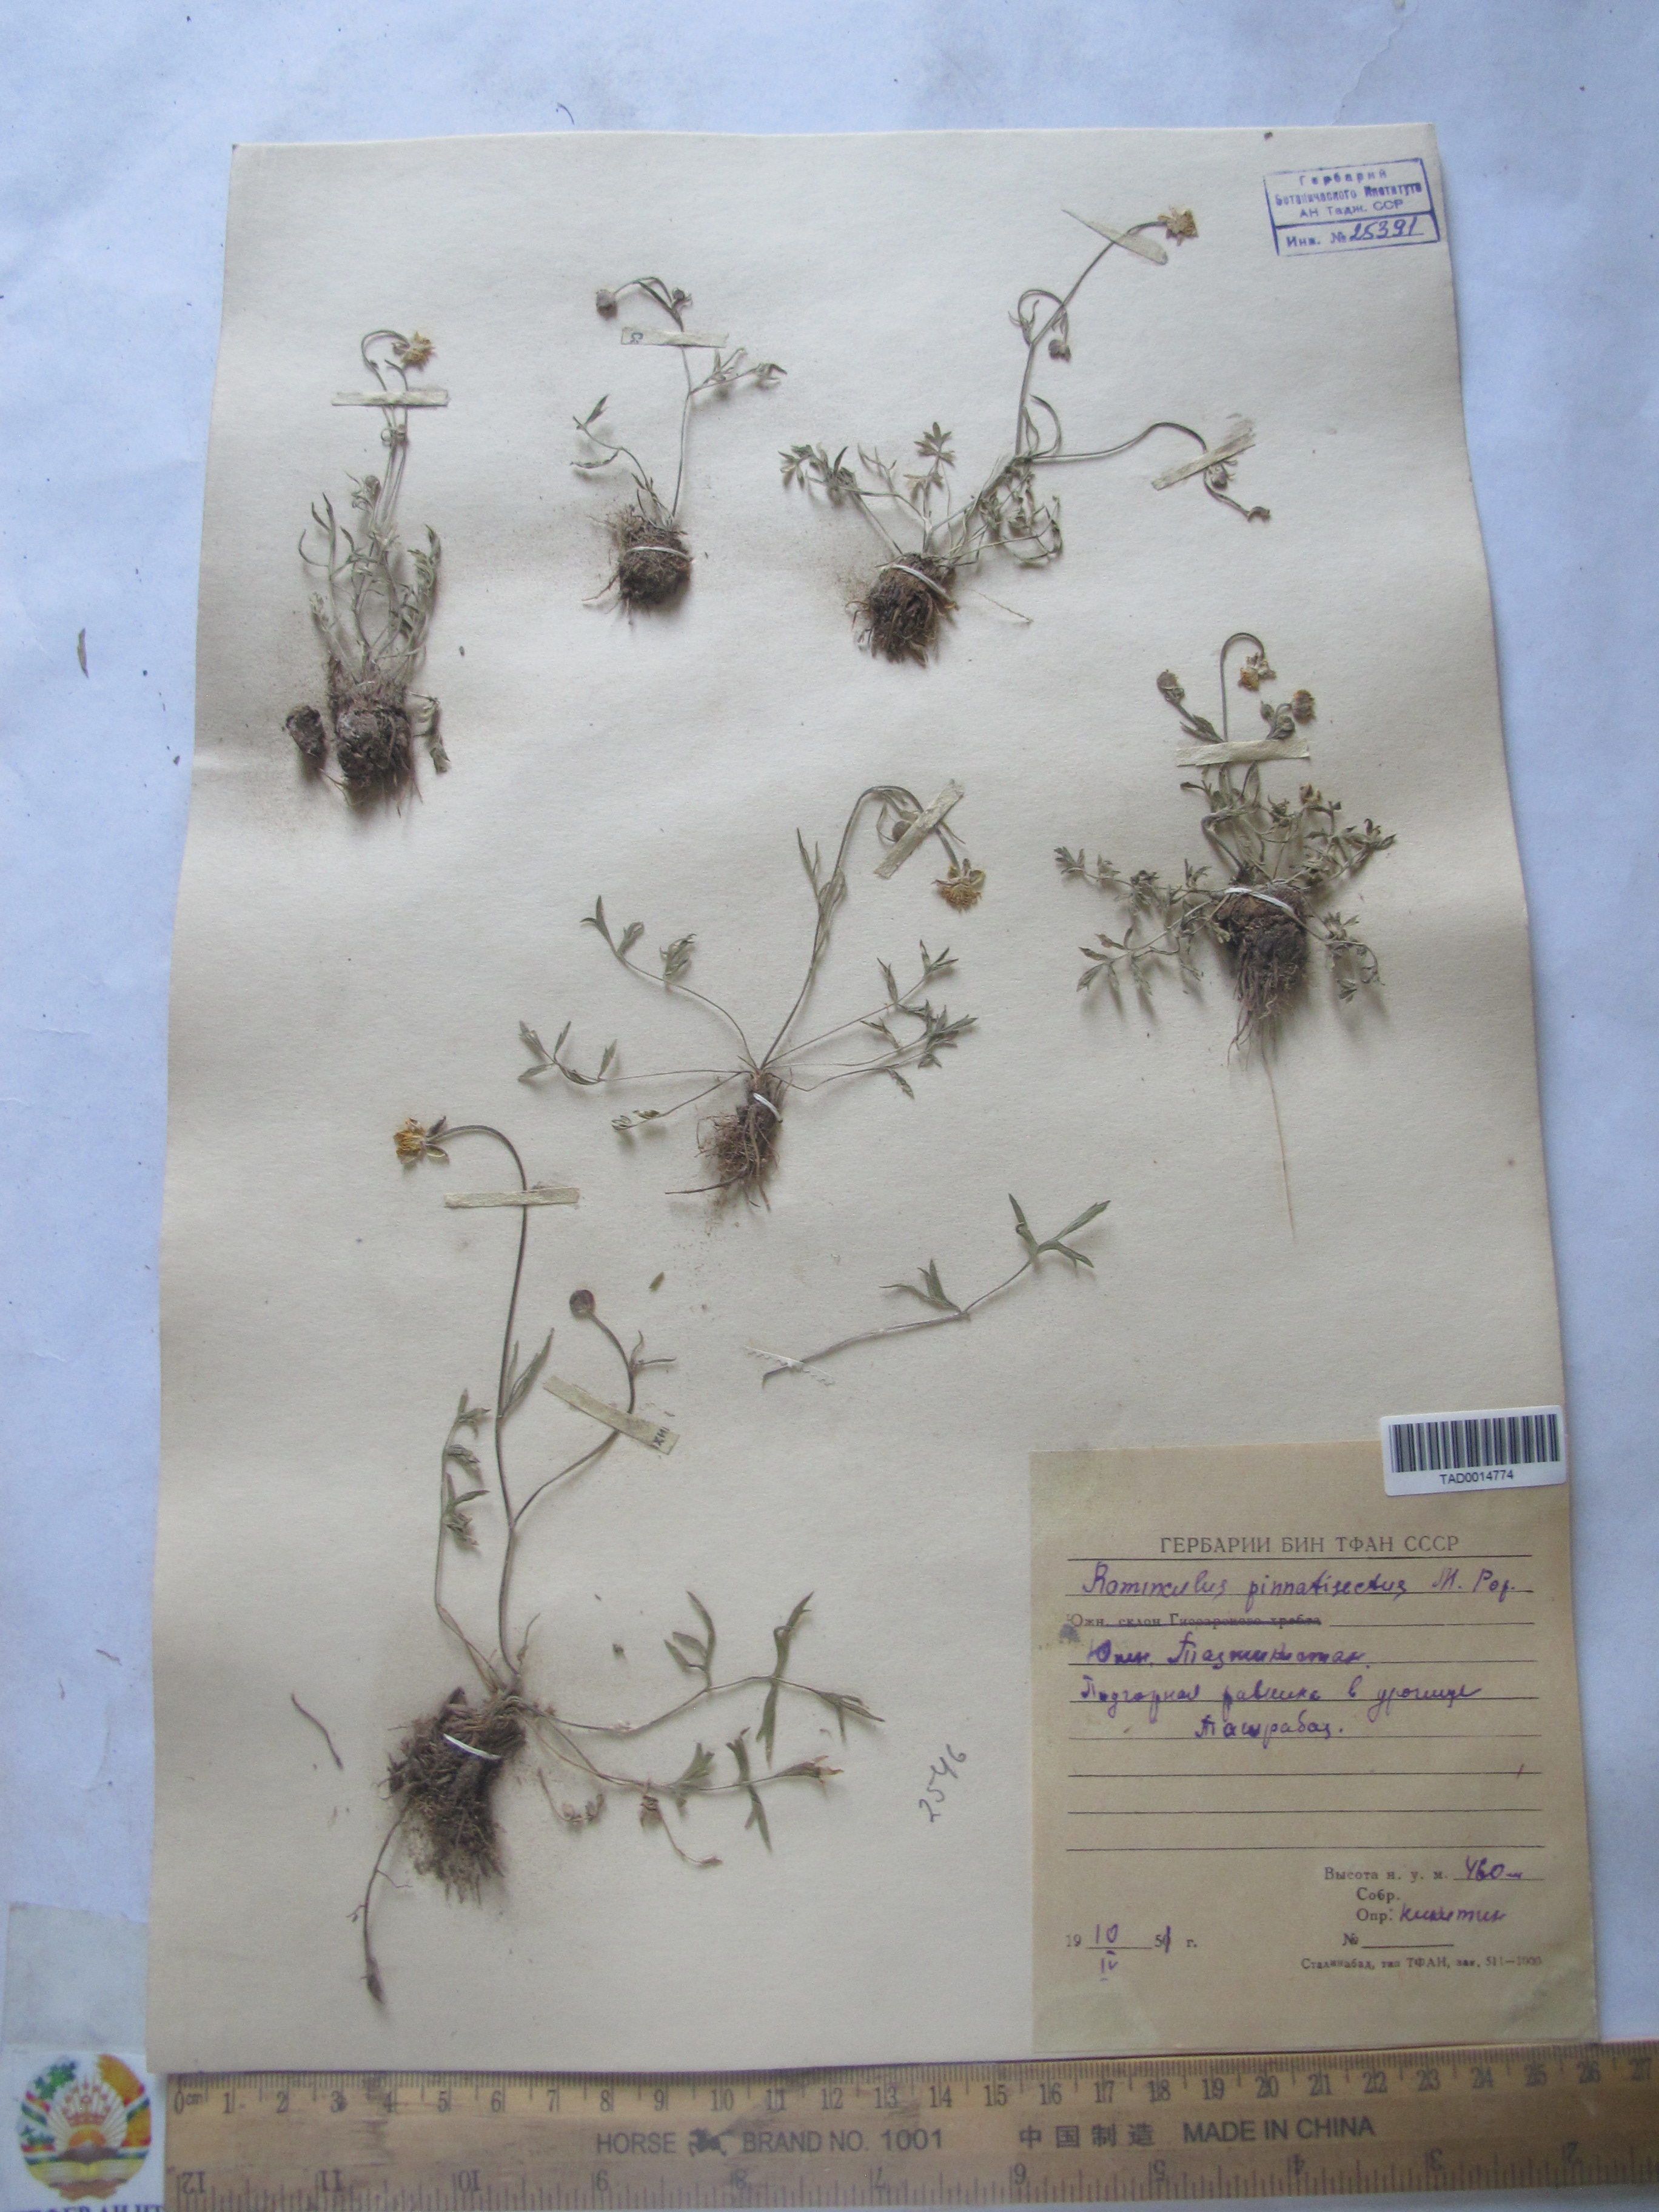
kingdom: Plantae
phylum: Tracheophyta
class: Magnoliopsida
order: Ranunculales
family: Ranunculaceae
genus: Ranunculus
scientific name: Ranunculus pinnatisectus
